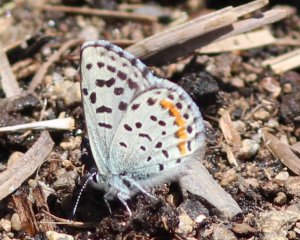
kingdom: Animalia
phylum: Arthropoda
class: Insecta
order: Lepidoptera
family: Lycaenidae
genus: Euphilotes
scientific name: Euphilotes
